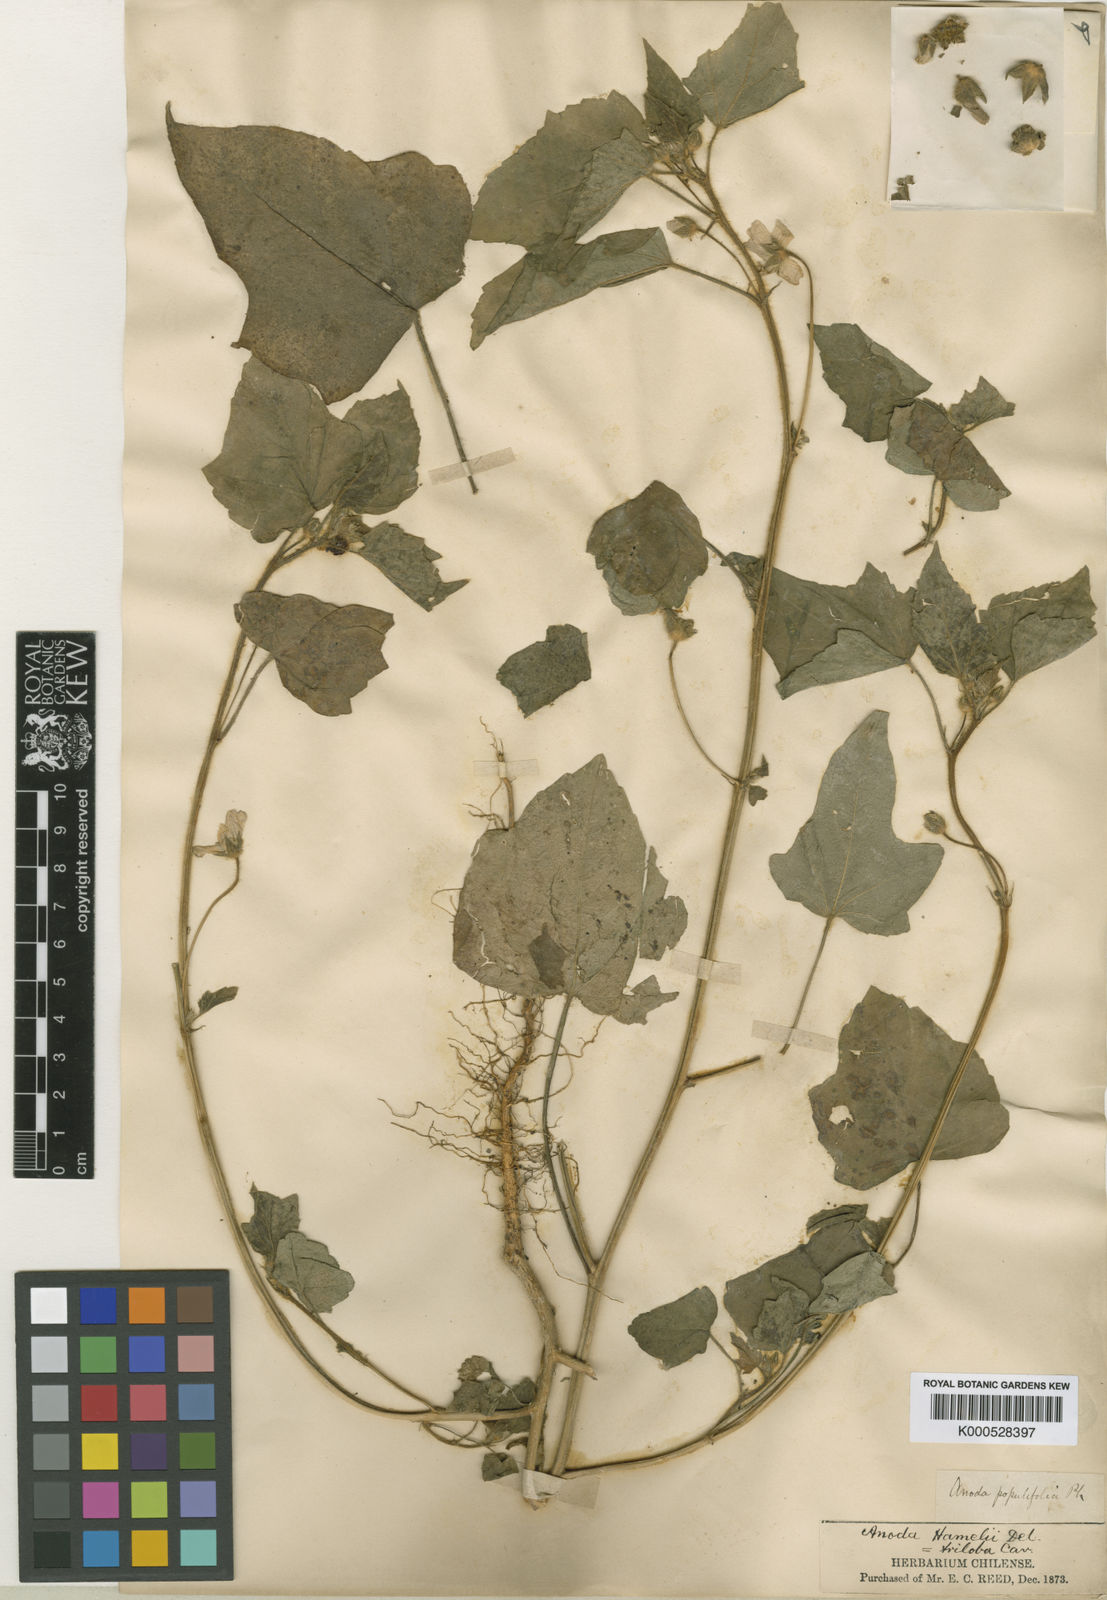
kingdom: Plantae
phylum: Tracheophyta
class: Magnoliopsida
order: Malvales
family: Malvaceae
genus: Anoda
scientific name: Anoda cristata
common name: Spurred anoda
